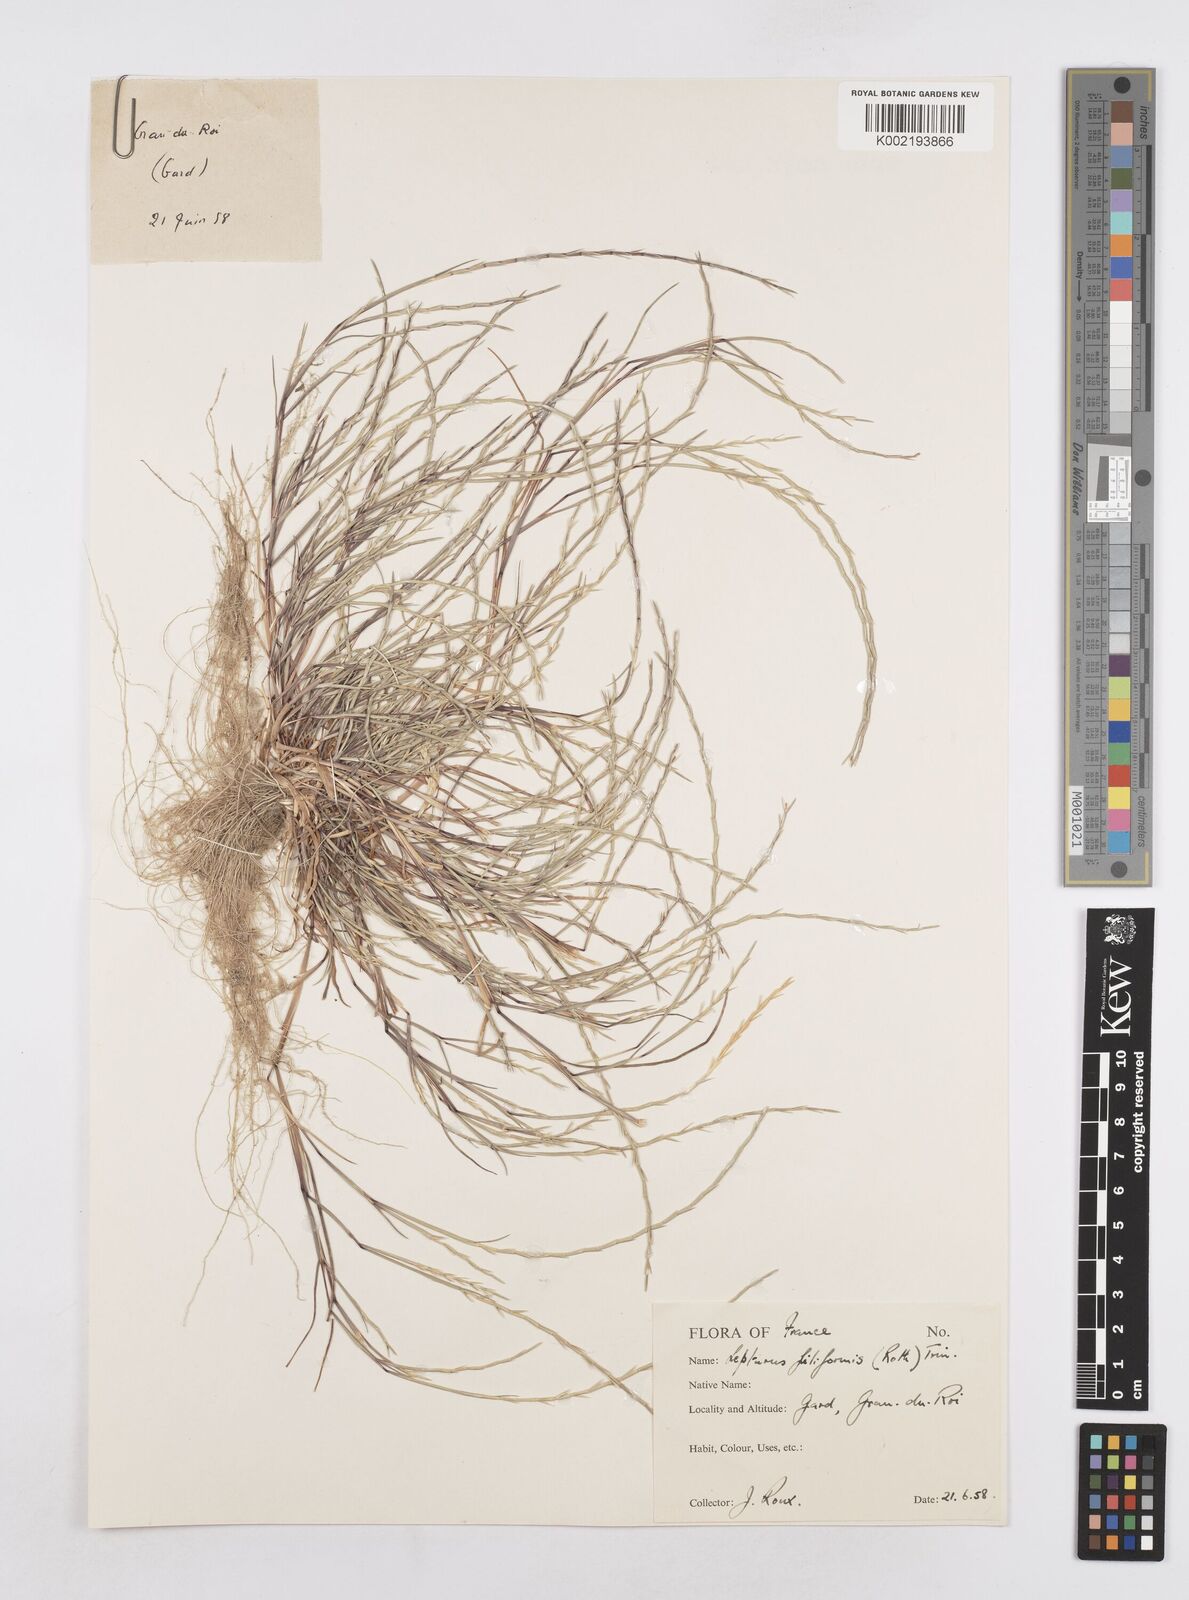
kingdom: Plantae
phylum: Tracheophyta
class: Liliopsida
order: Poales
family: Poaceae
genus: Parapholis
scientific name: Parapholis strigosa
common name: Hard-grass
